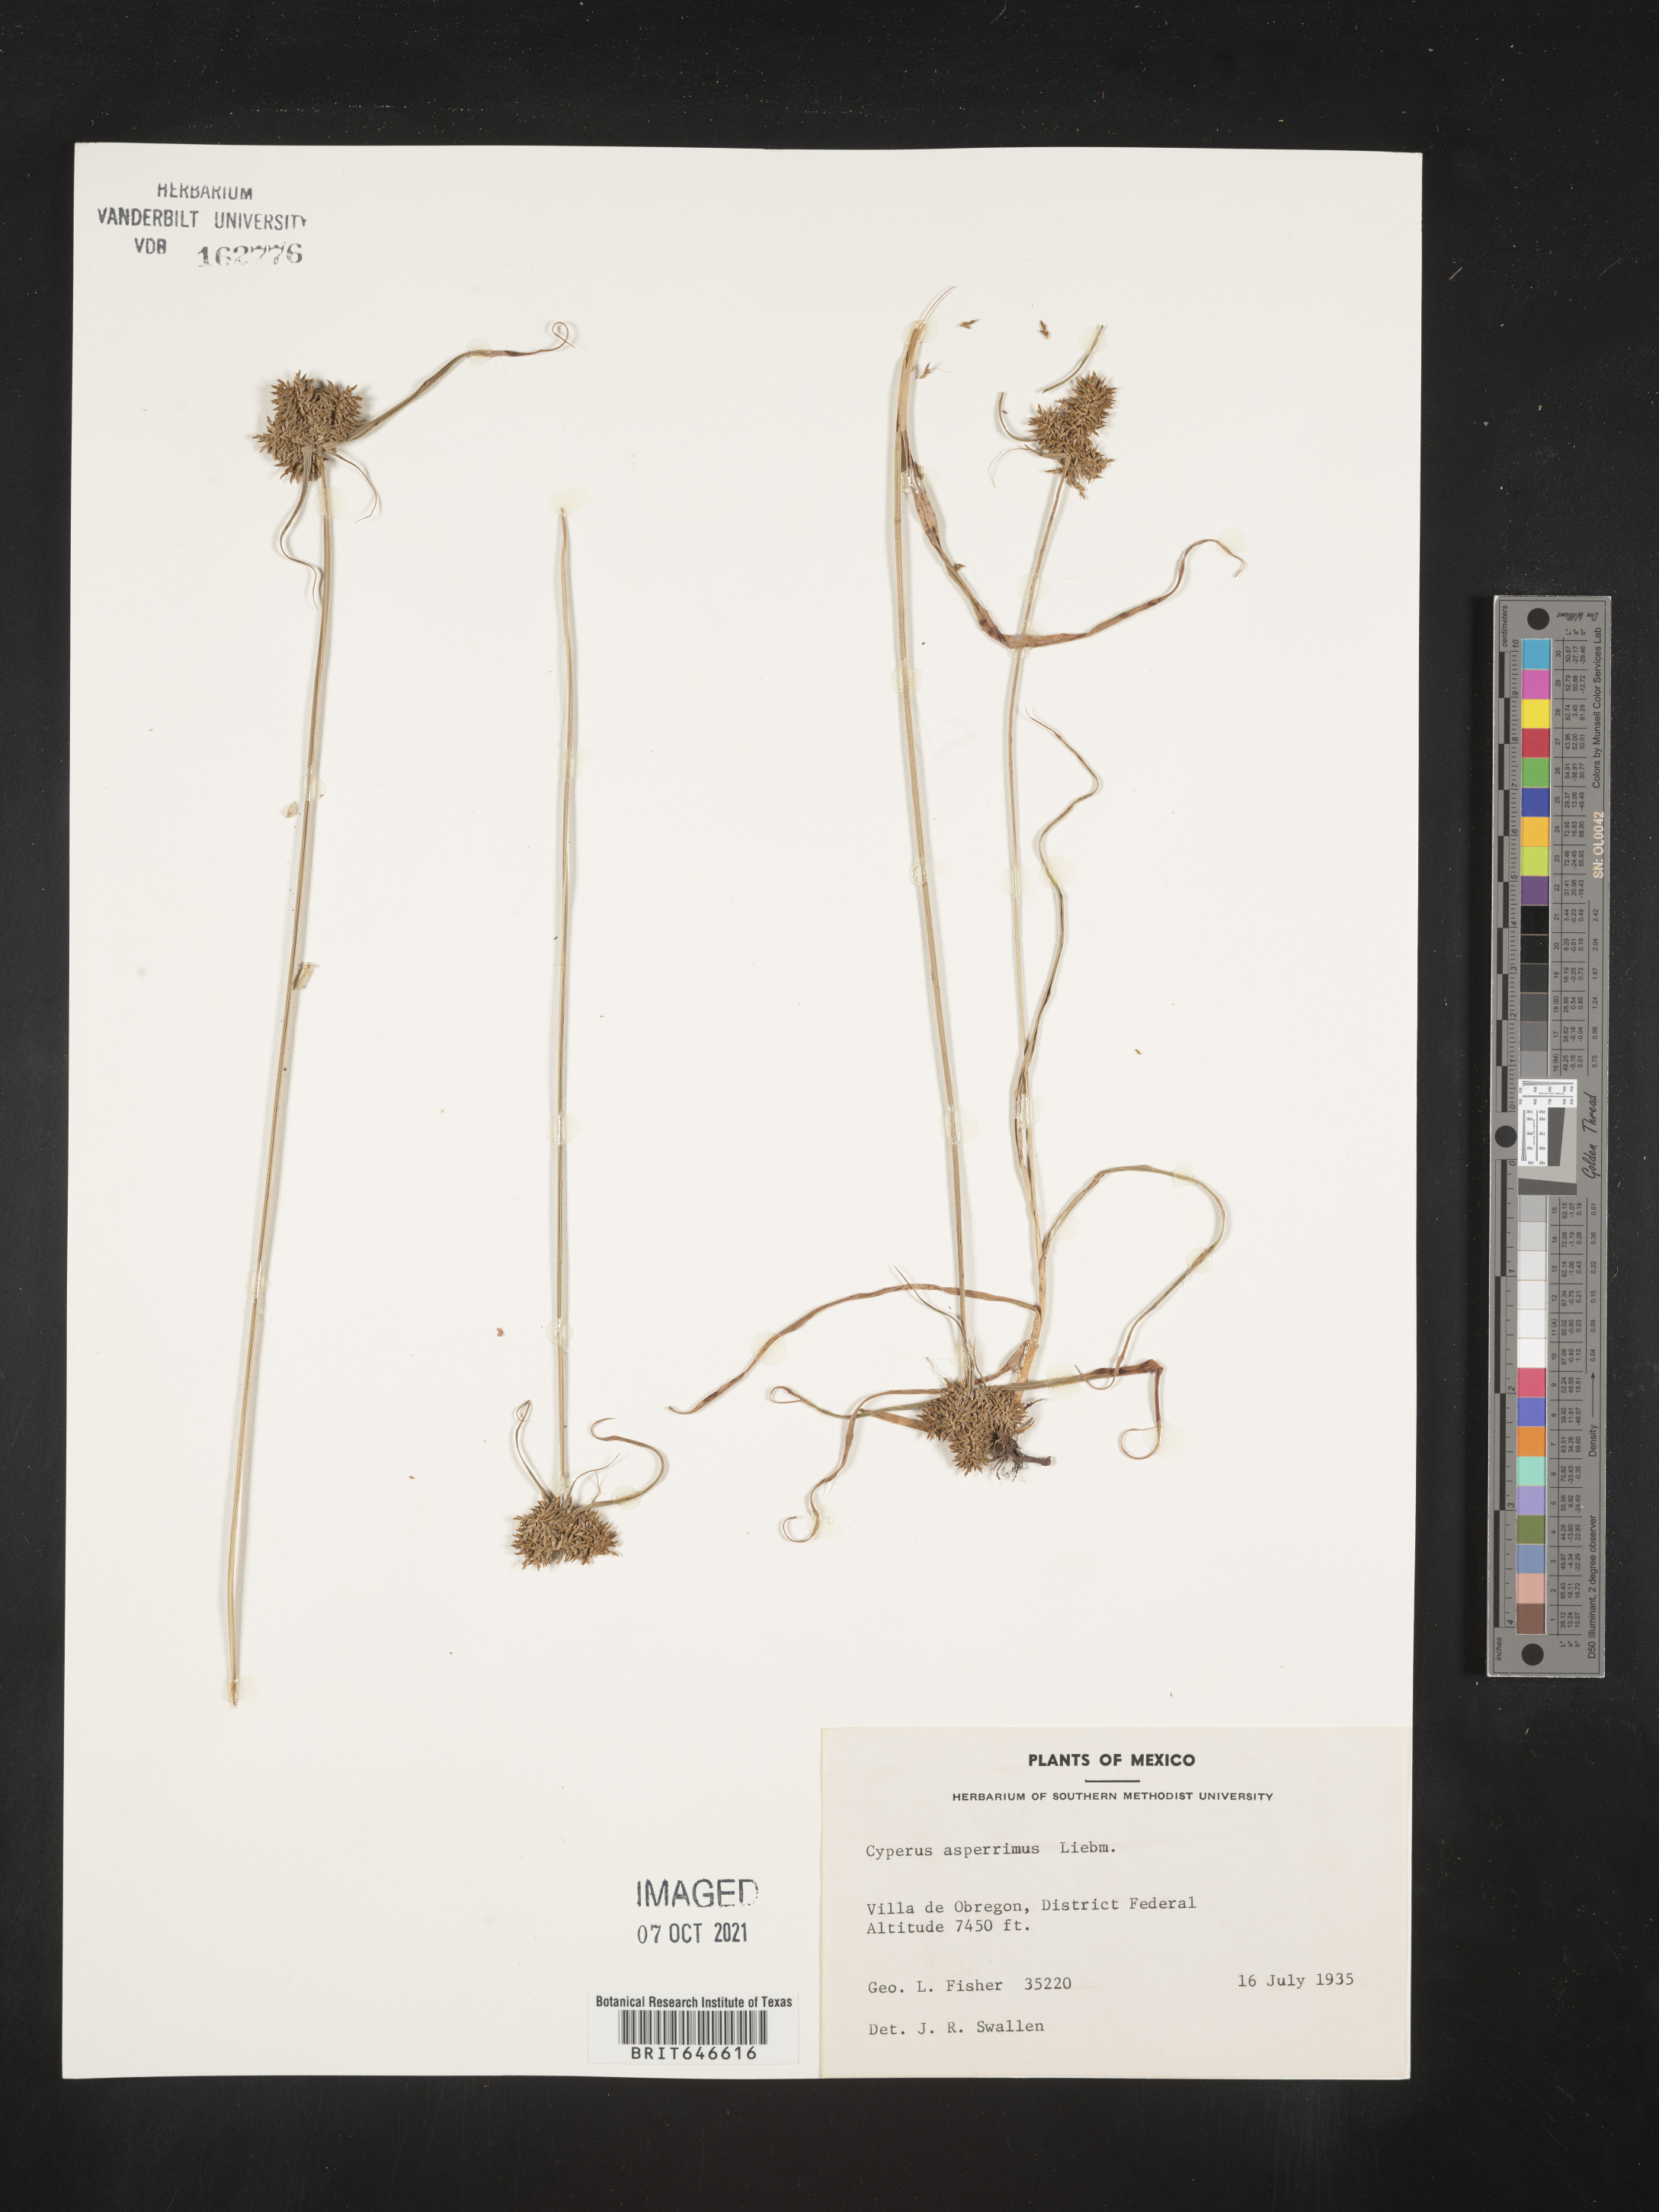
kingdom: Plantae
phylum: Tracheophyta
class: Liliopsida
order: Poales
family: Cyperaceae
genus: Cyperus
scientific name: Cyperus
